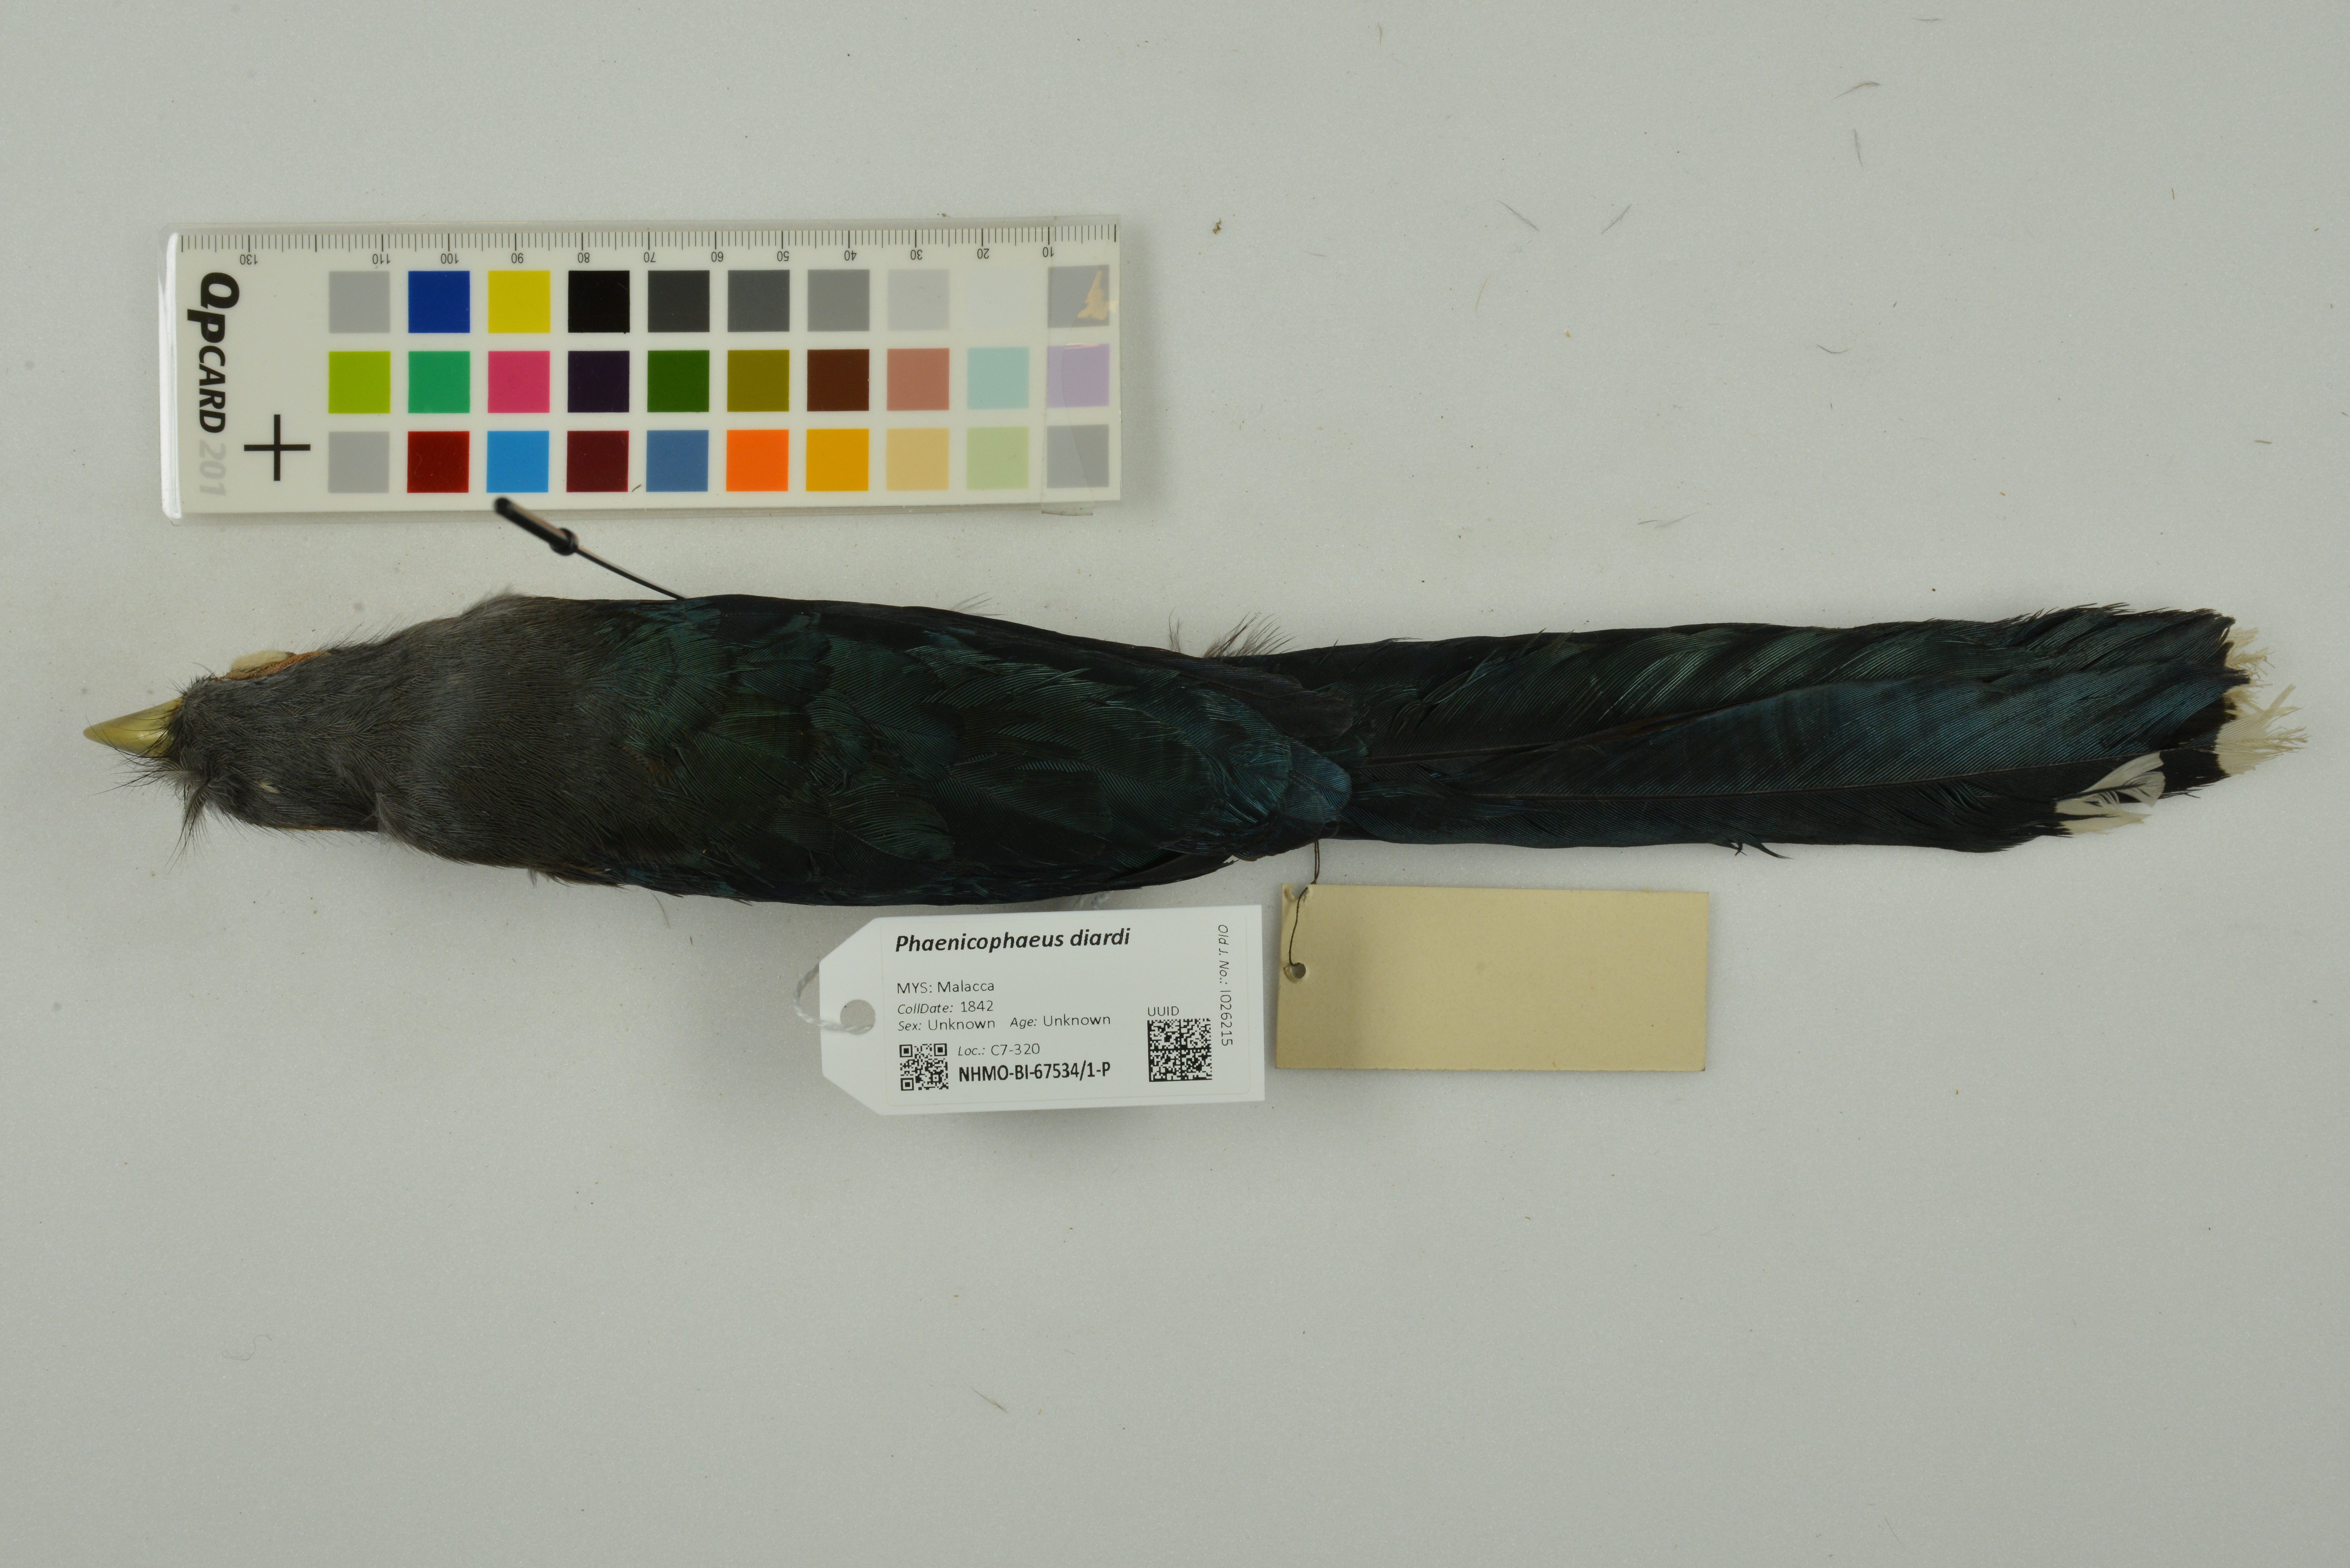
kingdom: Animalia
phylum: Chordata
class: Aves
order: Cuculiformes
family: Cuculidae
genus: Rhopodytes
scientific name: Rhopodytes diardi
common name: Lesser green-billed malcoha
